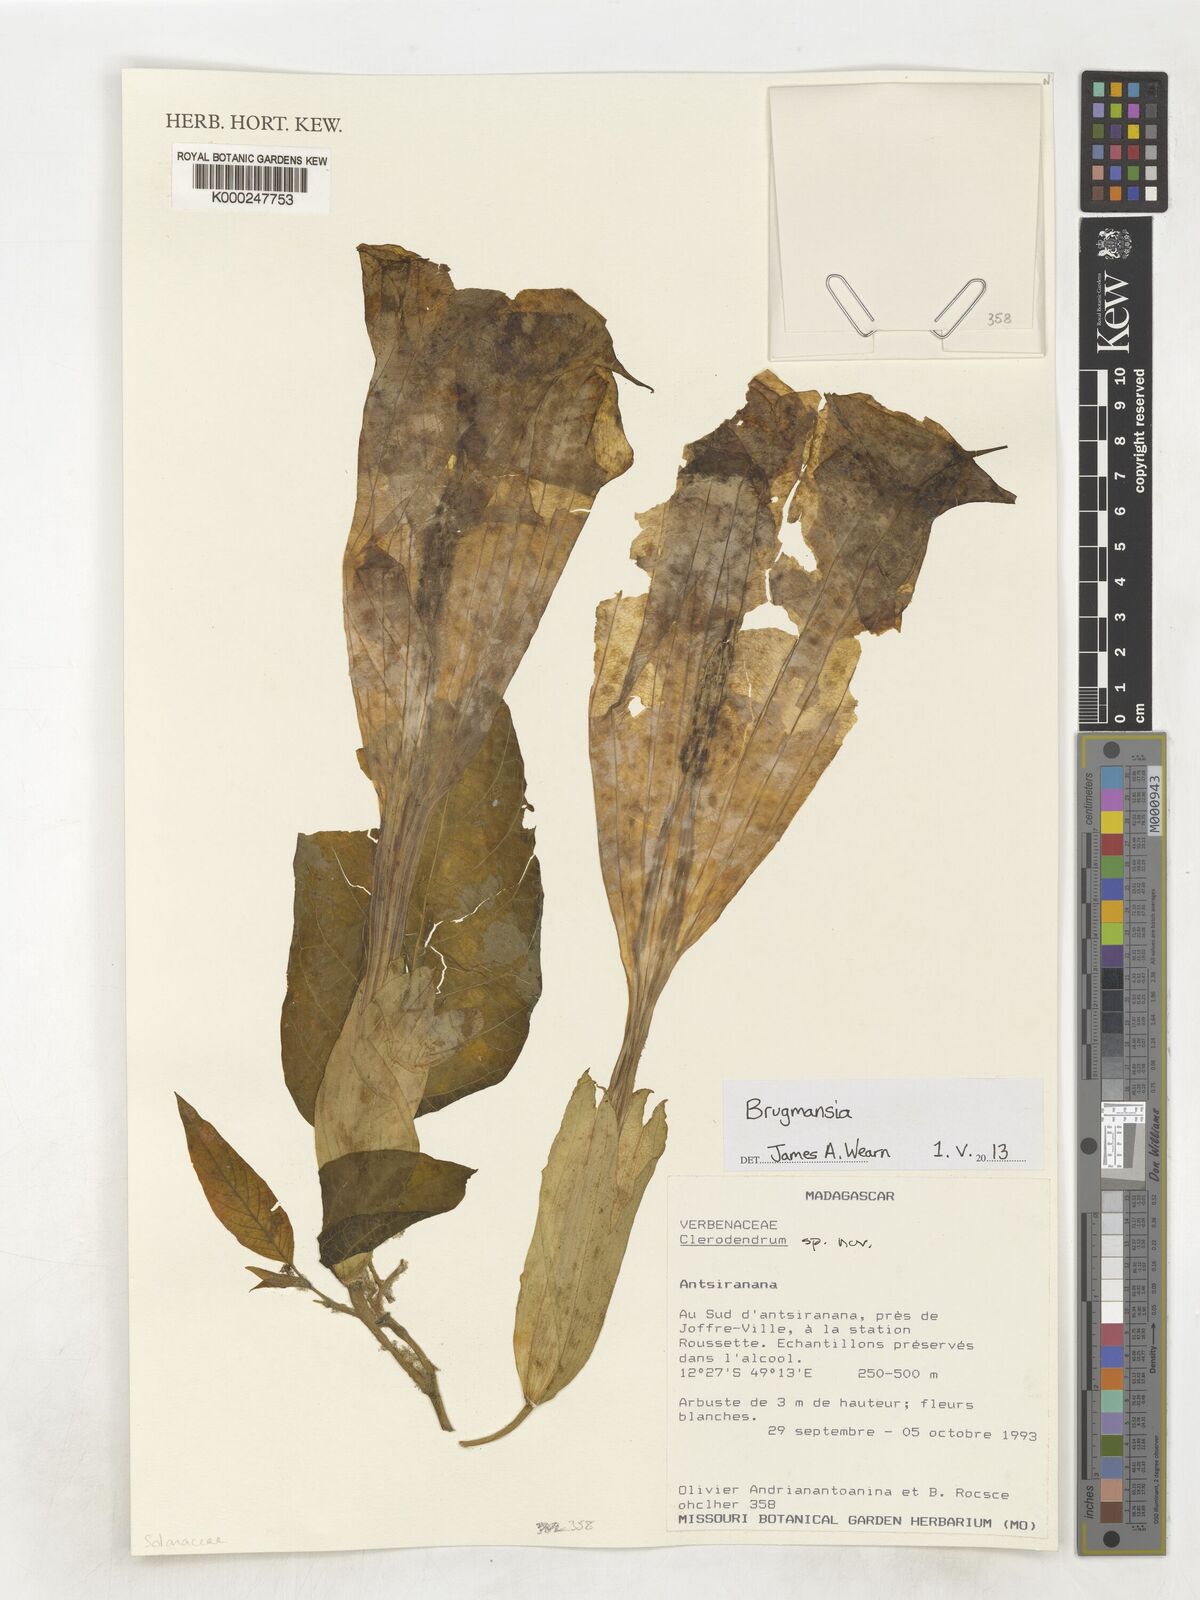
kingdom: Plantae
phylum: Tracheophyta
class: Magnoliopsida
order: Lamiales
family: Lamiaceae
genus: Clerodendrum
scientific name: Clerodendrum
